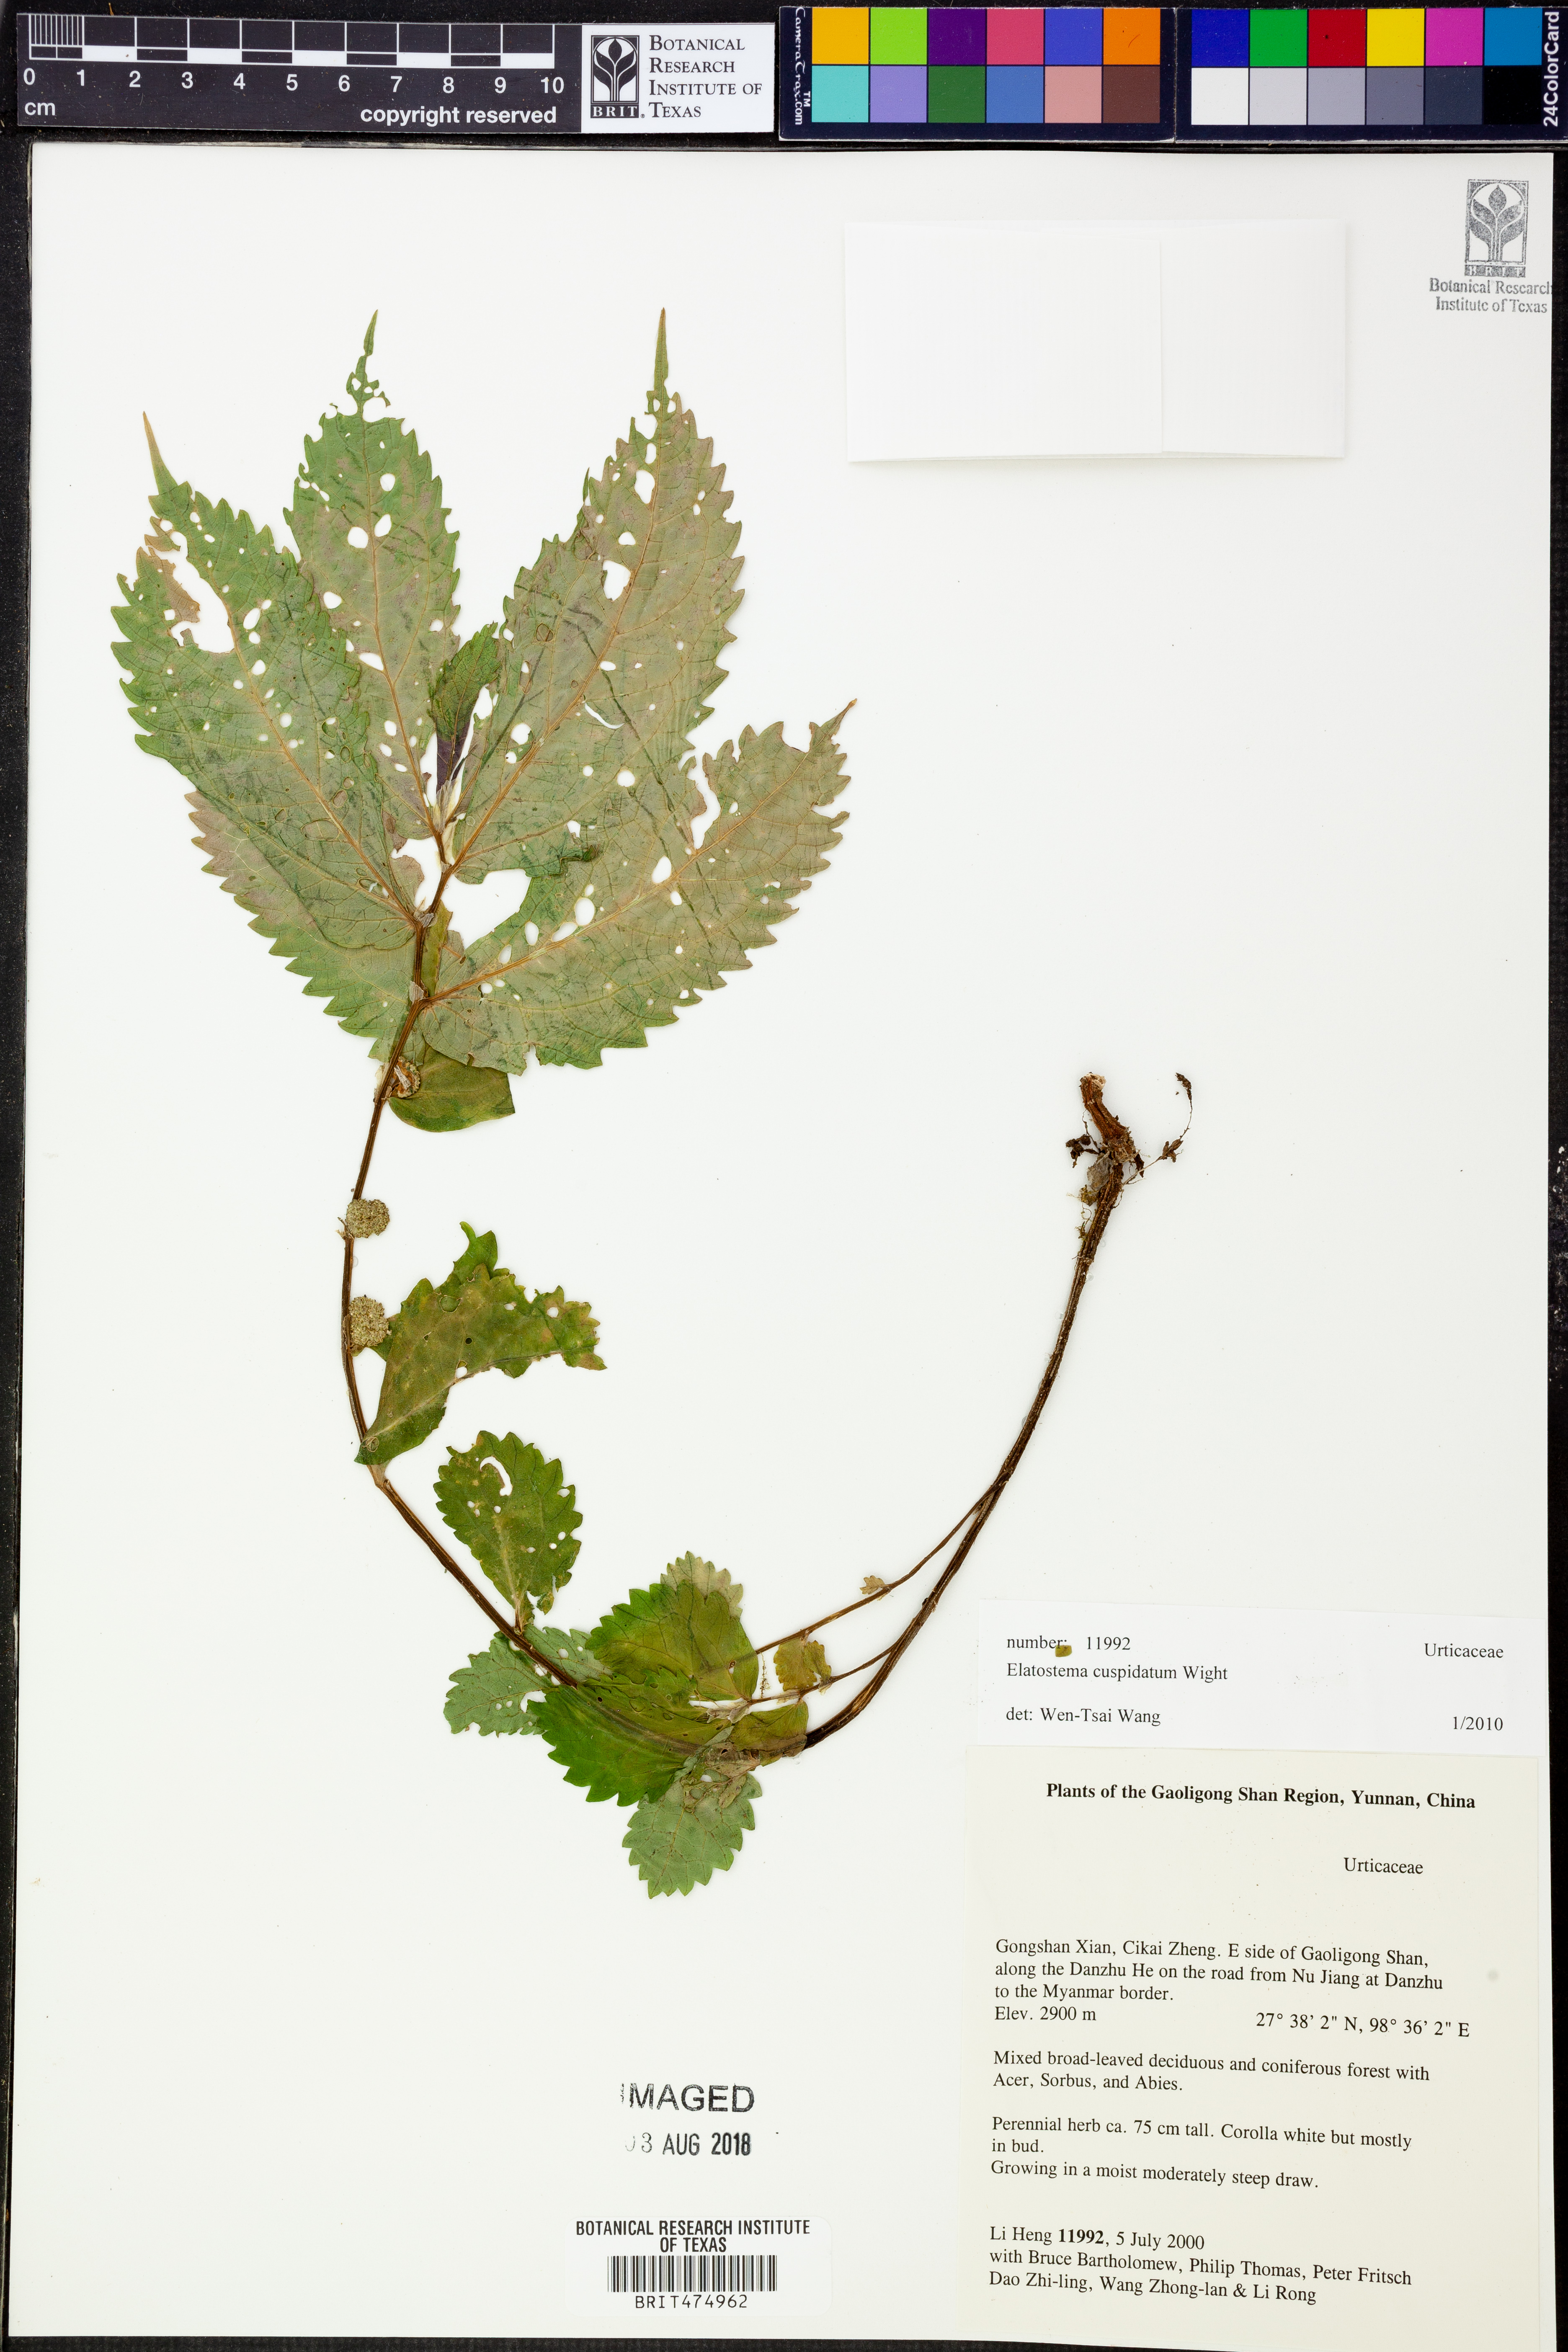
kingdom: Plantae
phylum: Tracheophyta
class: Magnoliopsida
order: Rosales
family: Urticaceae
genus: Elatostema
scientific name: Elatostema cuspidatum
